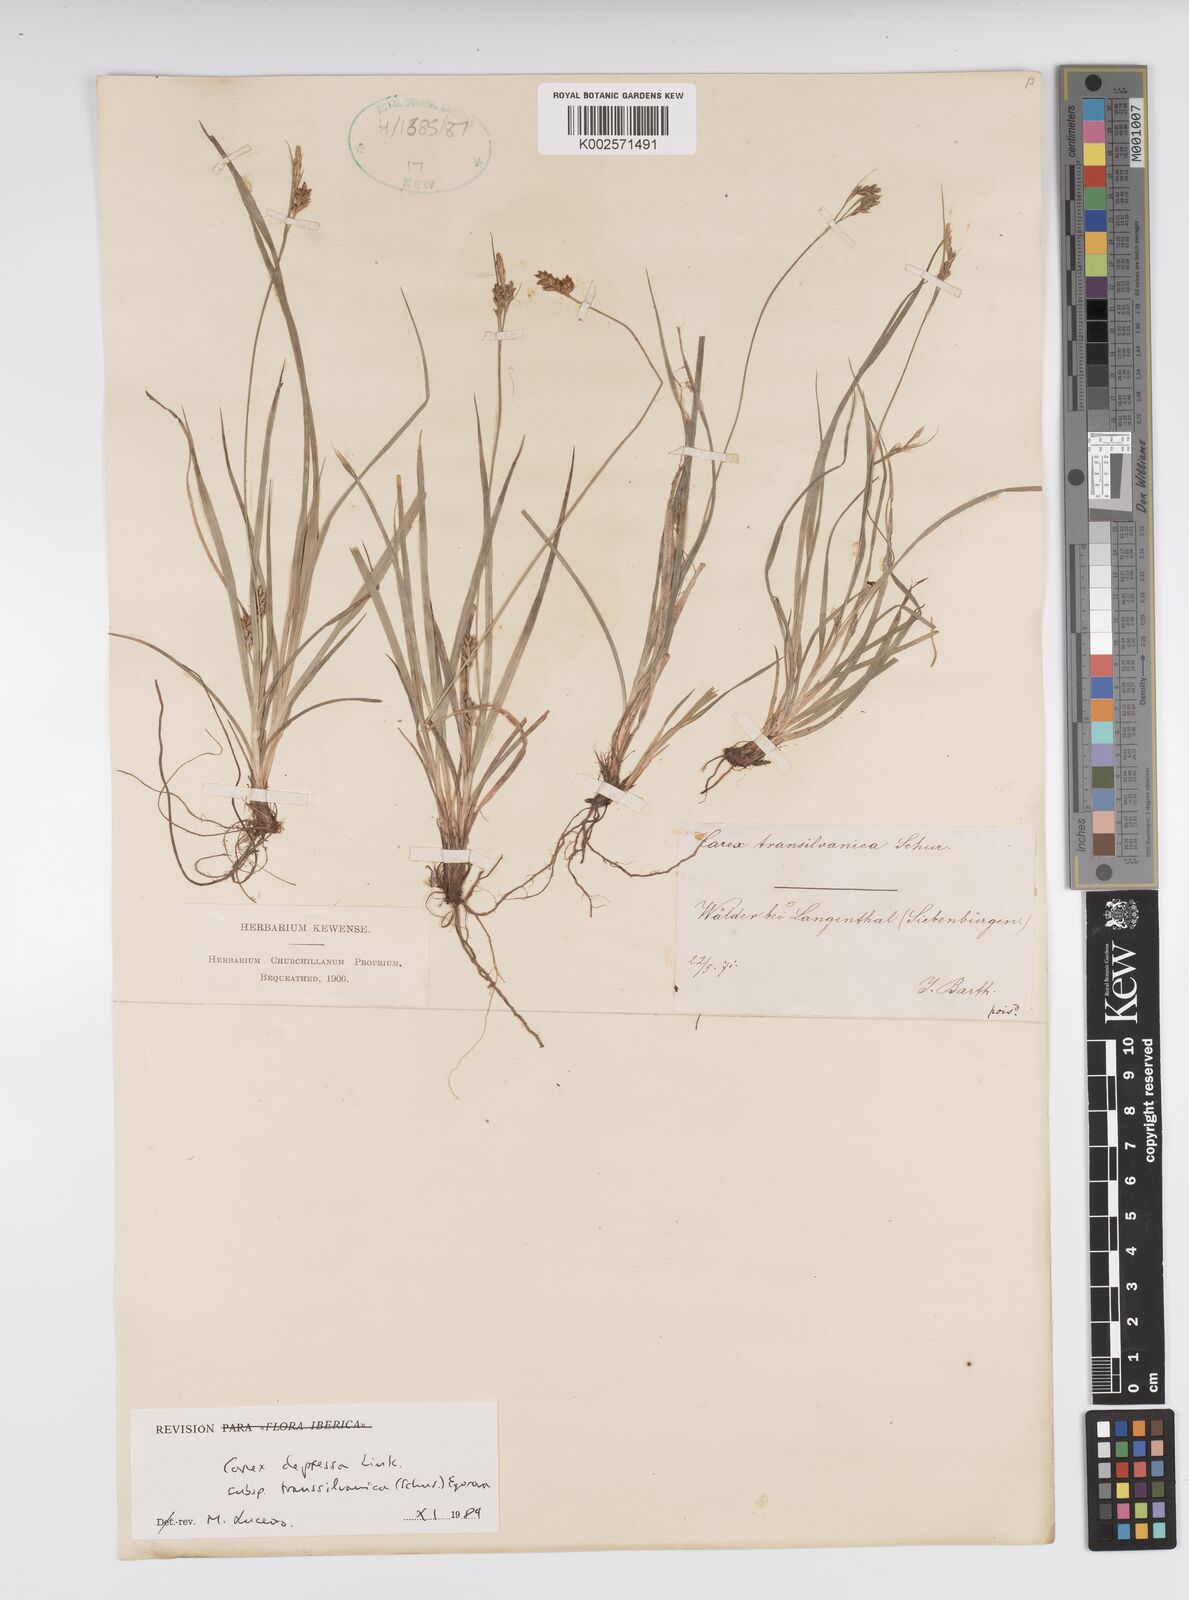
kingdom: Plantae
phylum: Tracheophyta
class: Liliopsida
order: Poales
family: Cyperaceae
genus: Carex
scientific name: Carex depressa
